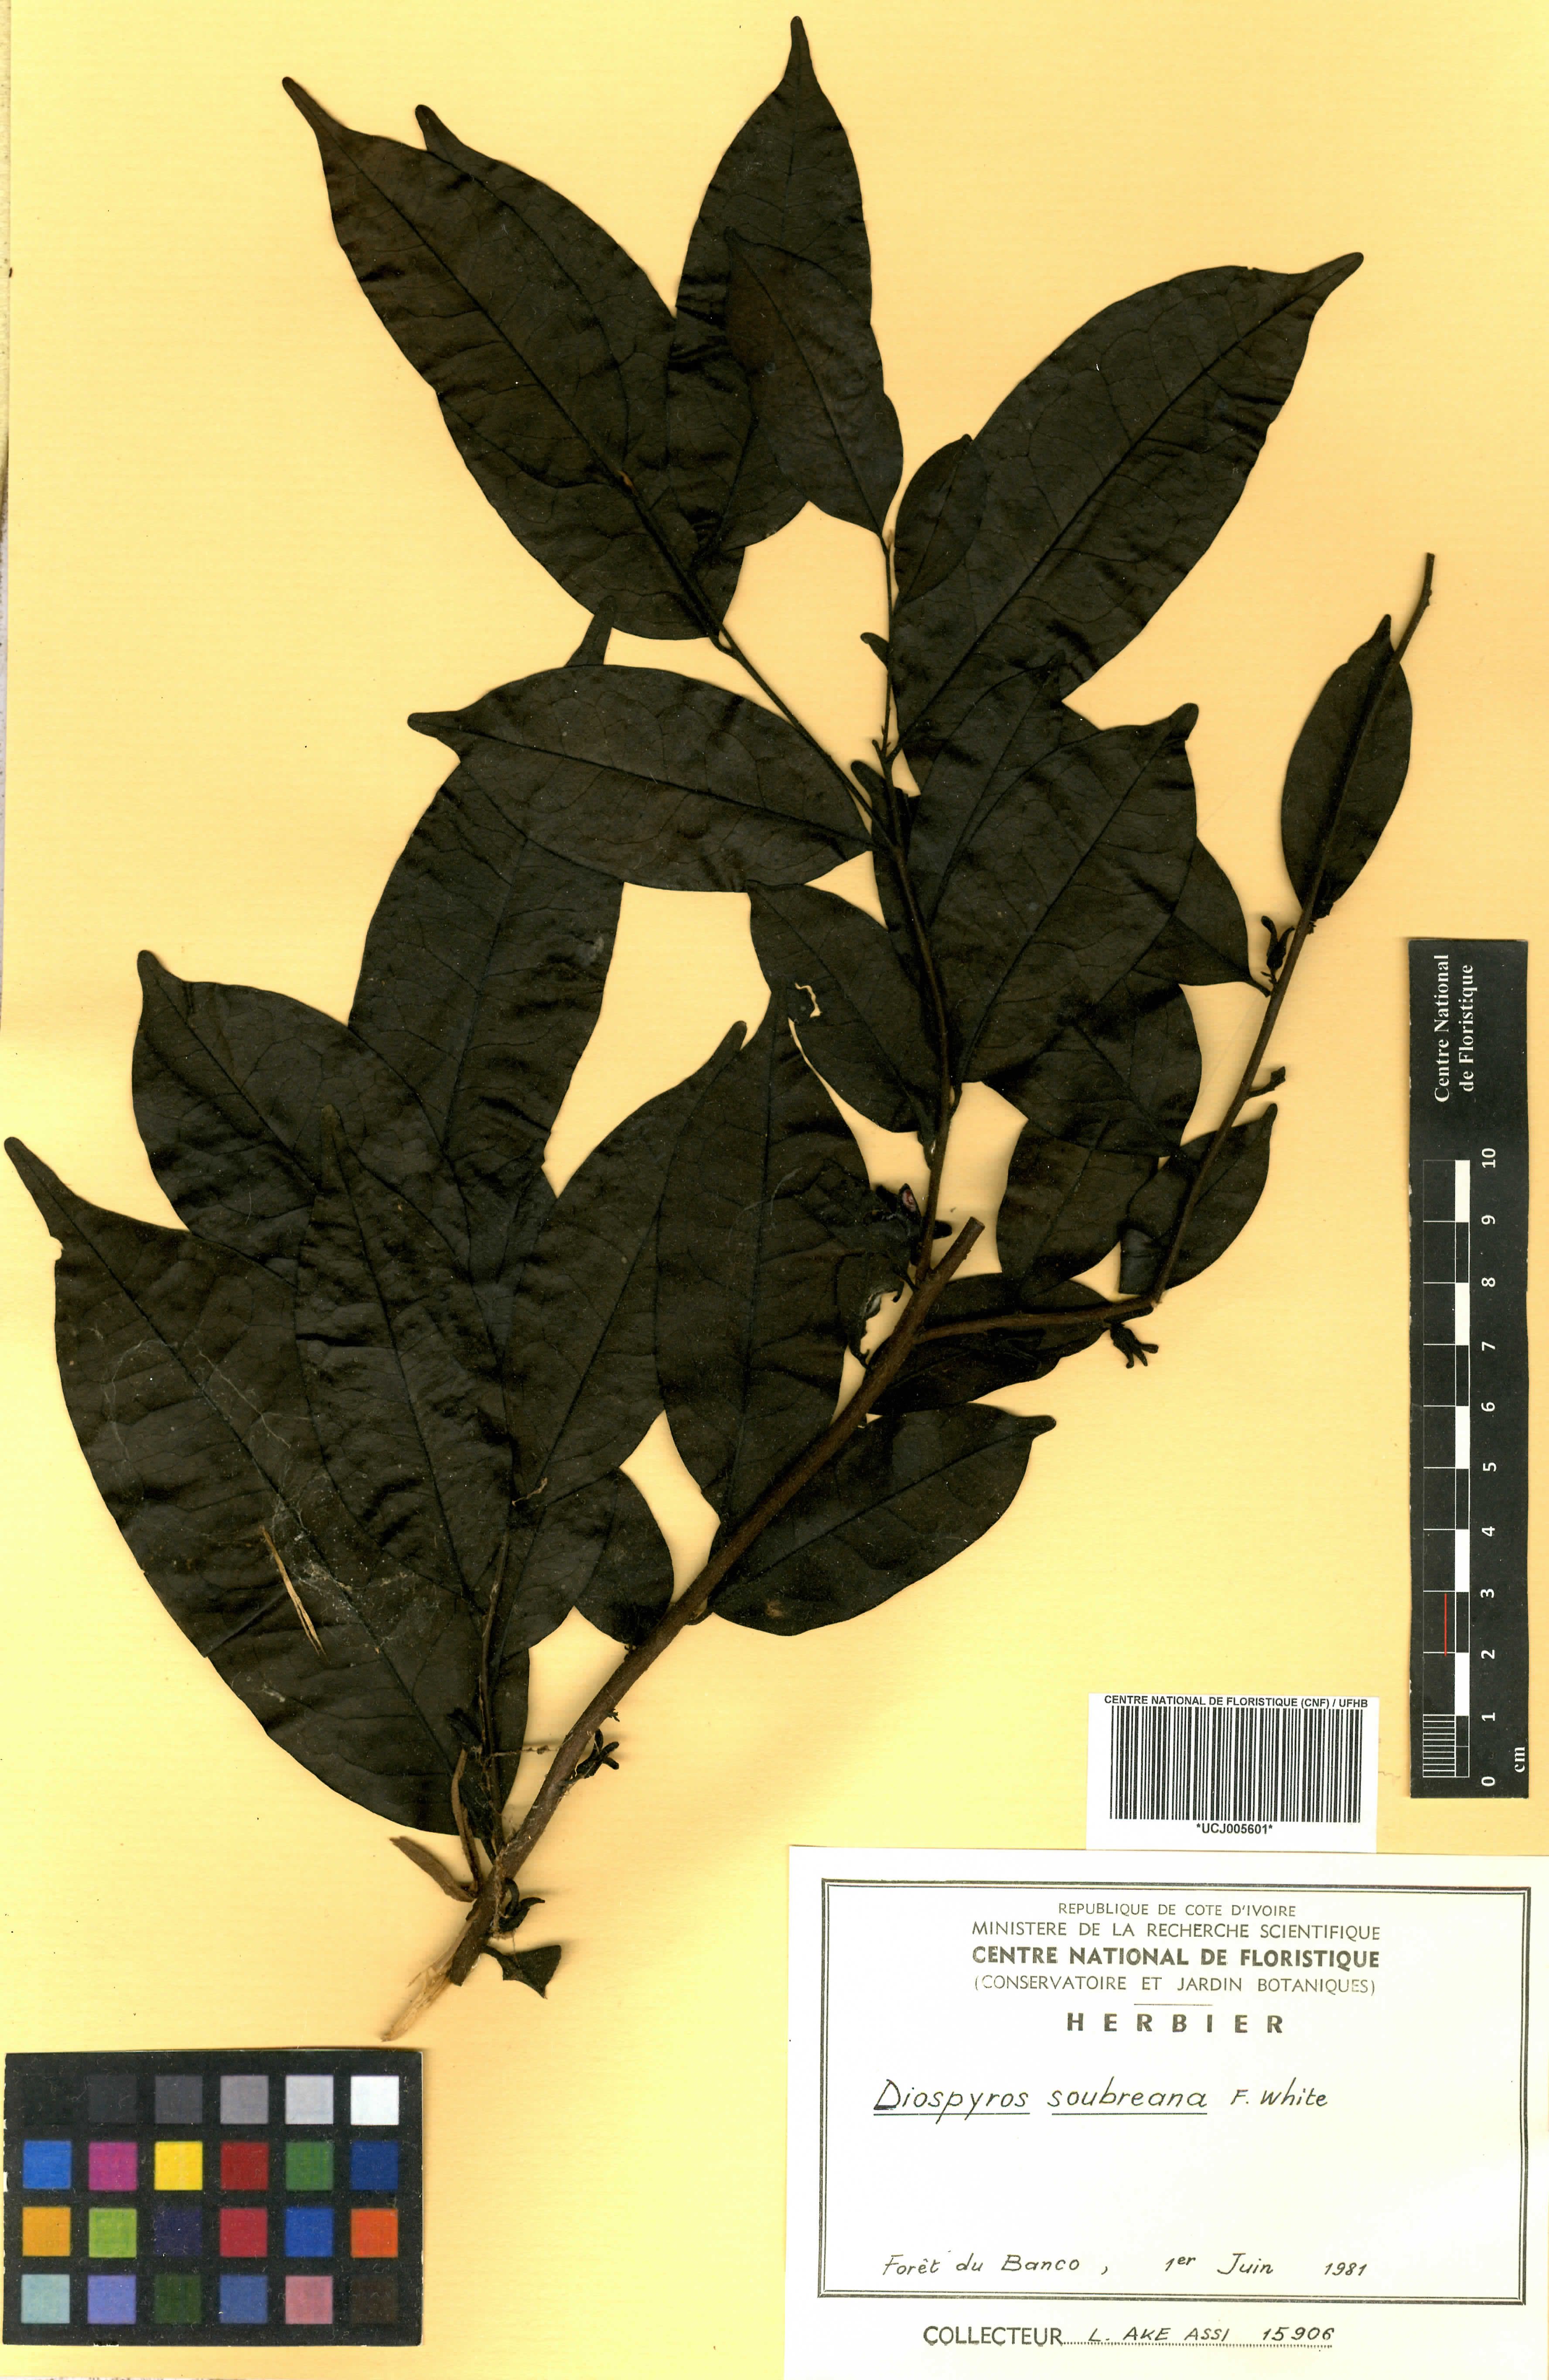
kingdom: Plantae
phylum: Tracheophyta
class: Magnoliopsida
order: Ericales
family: Ebenaceae
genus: Diospyros
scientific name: Diospyros soubreana
